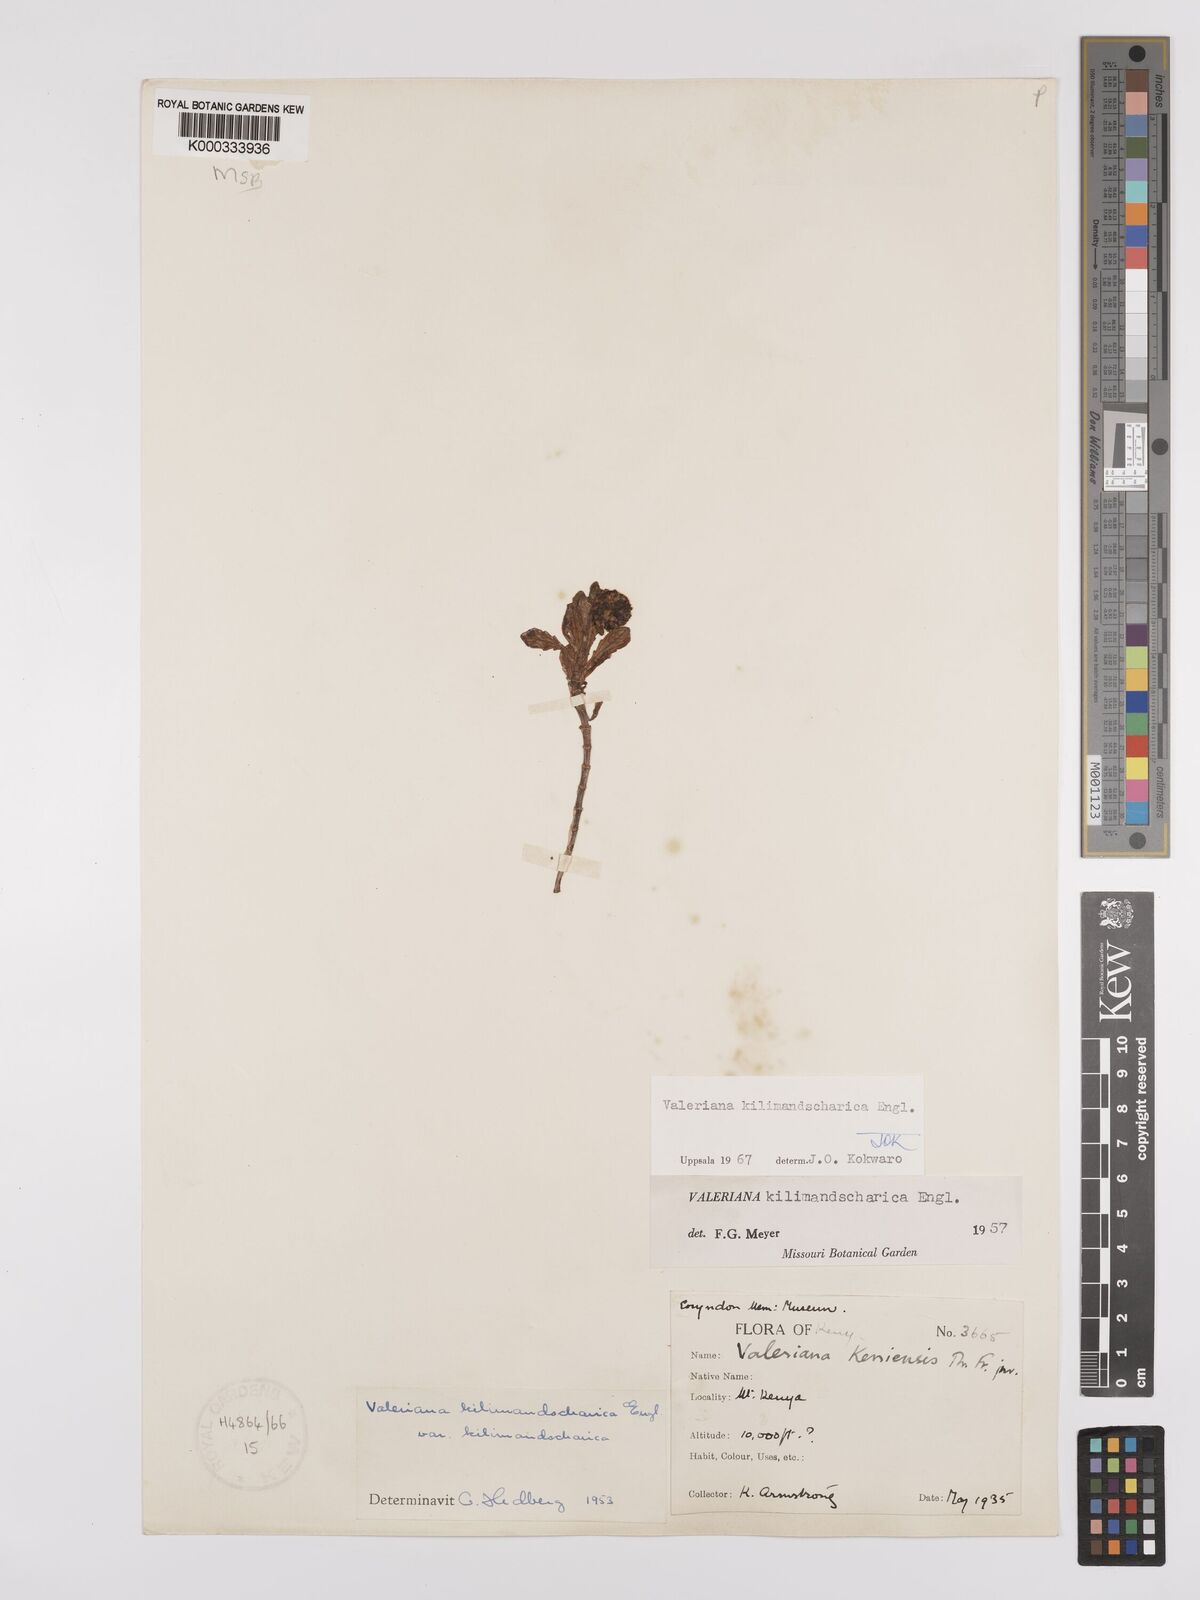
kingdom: Plantae
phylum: Tracheophyta
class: Magnoliopsida
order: Dipsacales
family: Caprifoliaceae
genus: Valeriana
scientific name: Valeriana kilimandscharica
